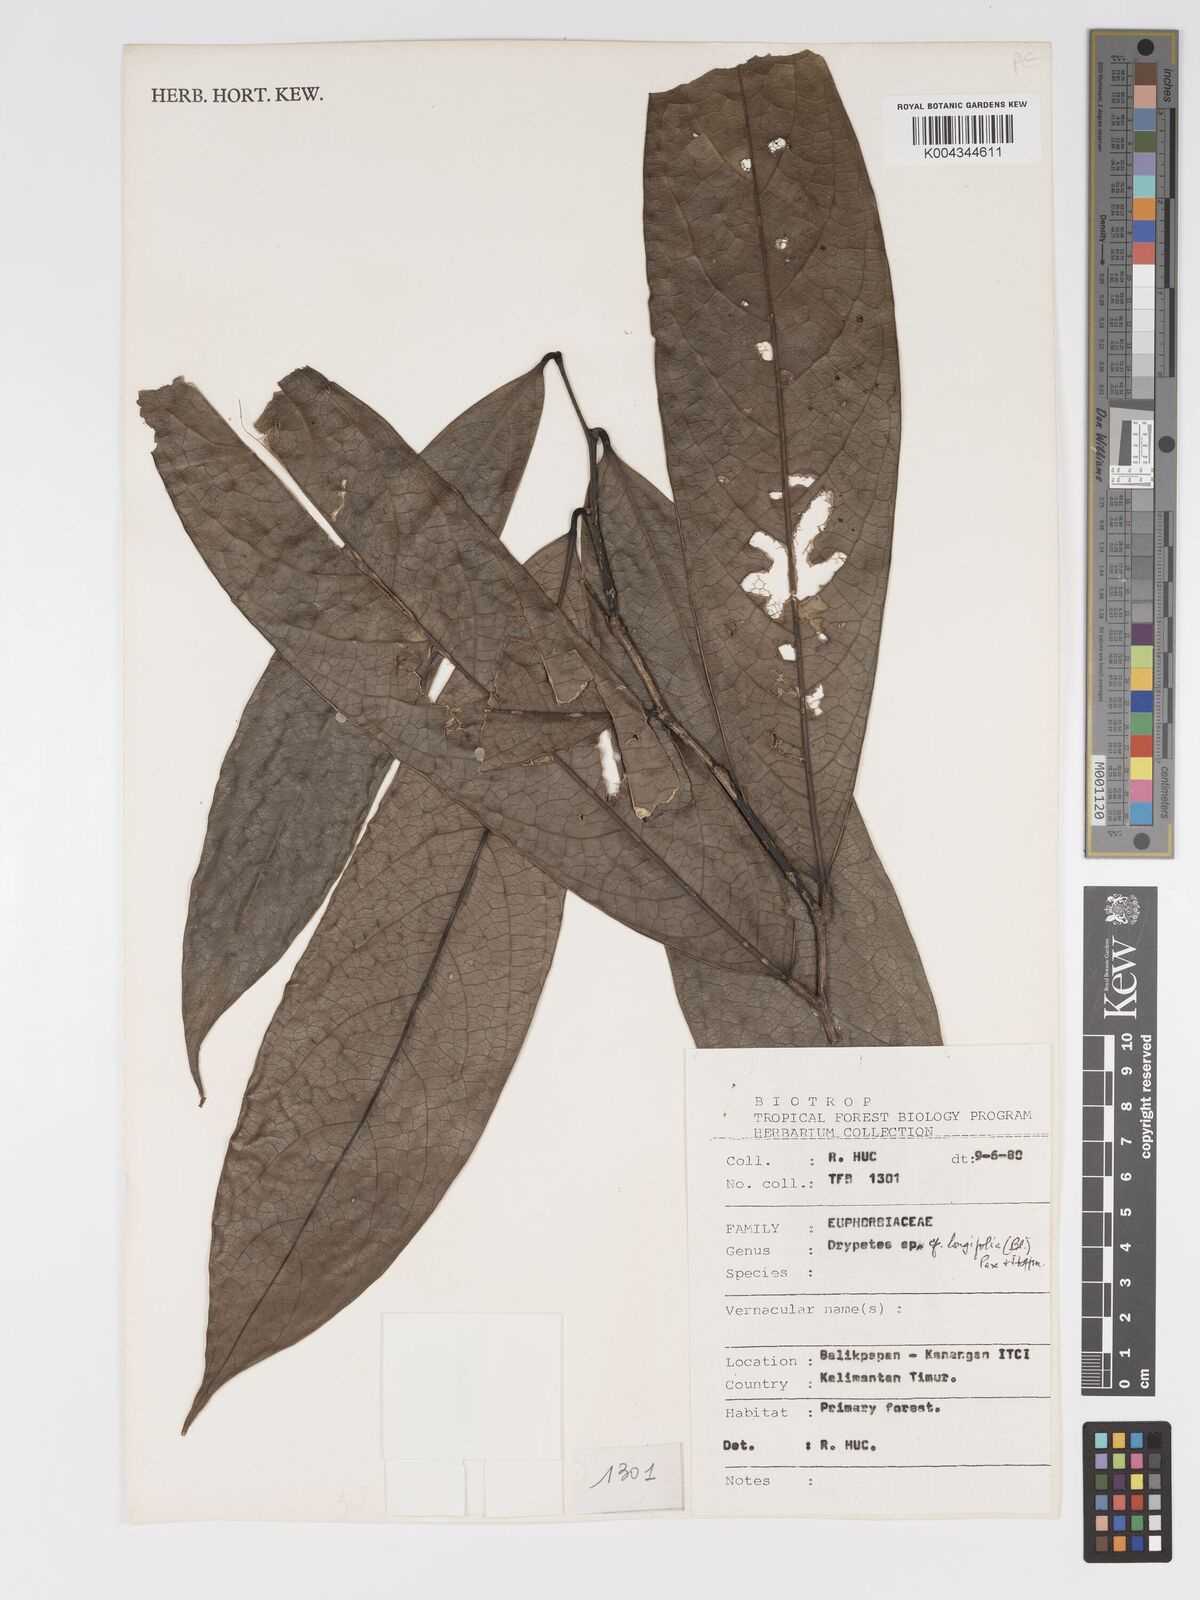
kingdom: Plantae
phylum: Tracheophyta
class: Magnoliopsida
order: Malpighiales
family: Putranjivaceae
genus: Drypetes
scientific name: Drypetes longifolia
